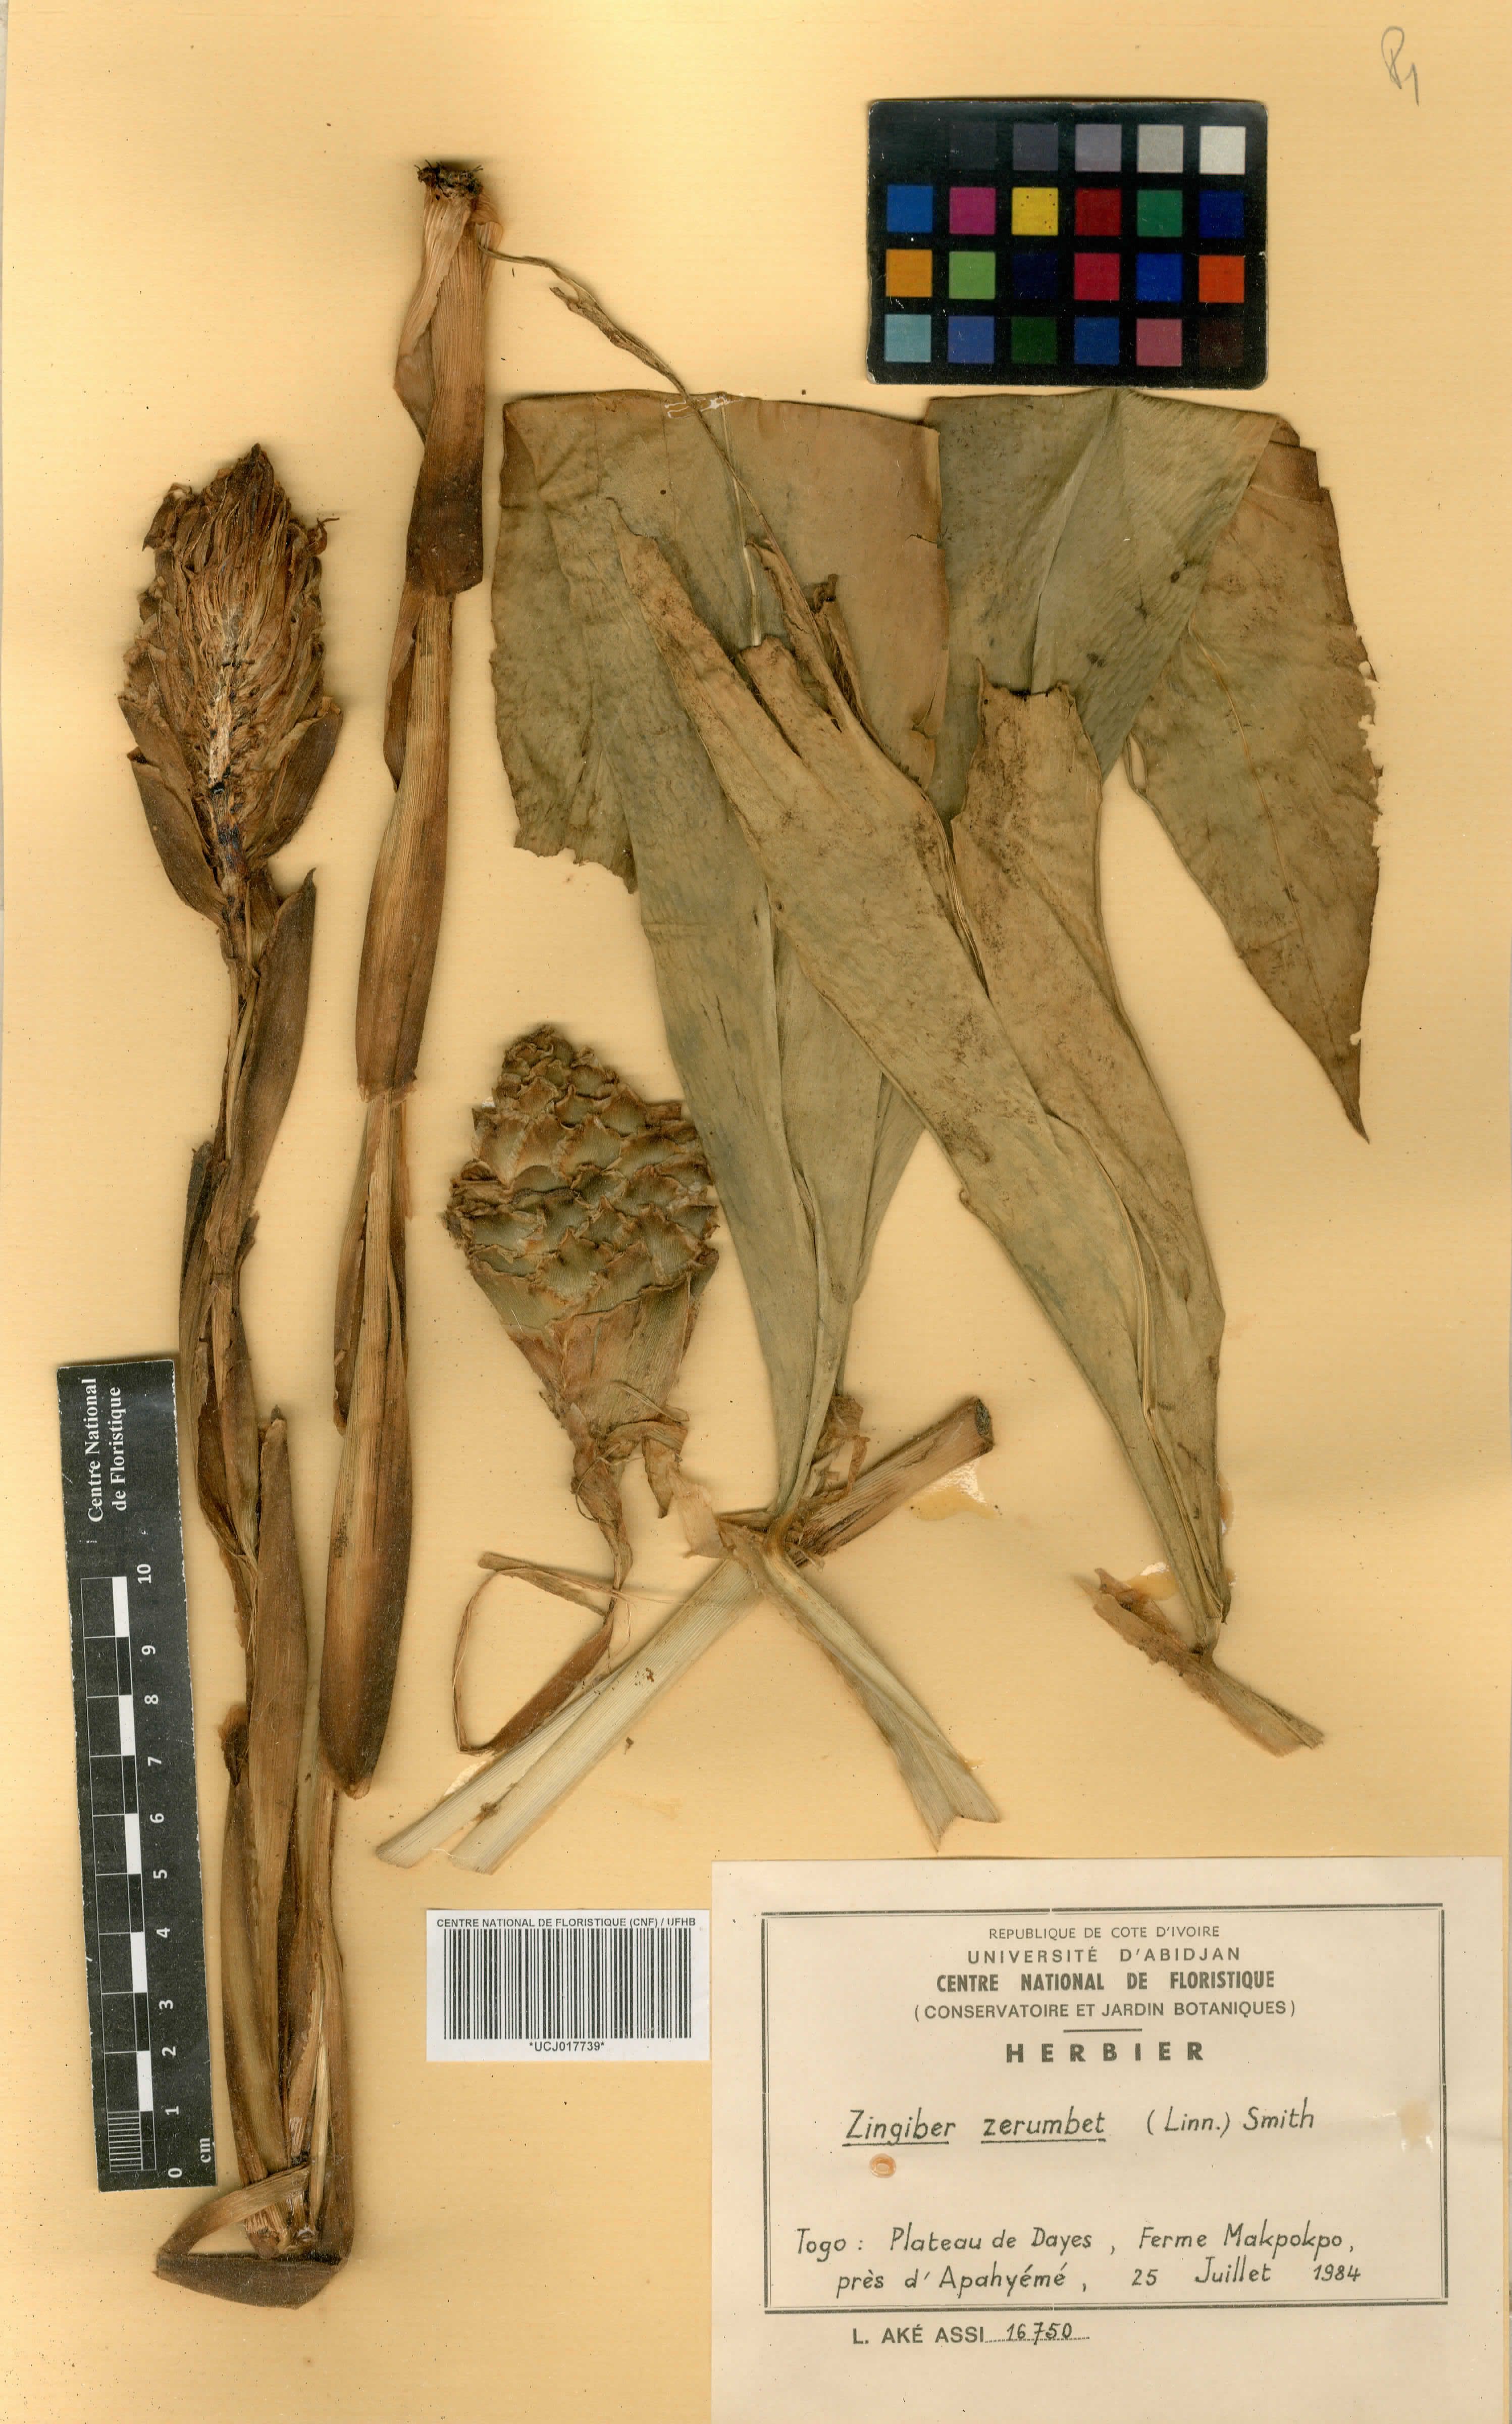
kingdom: Plantae
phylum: Tracheophyta
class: Liliopsida
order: Zingiberales
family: Zingiberaceae
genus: Zingiber
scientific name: Zingiber zerumbet
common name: Bitter ginger
